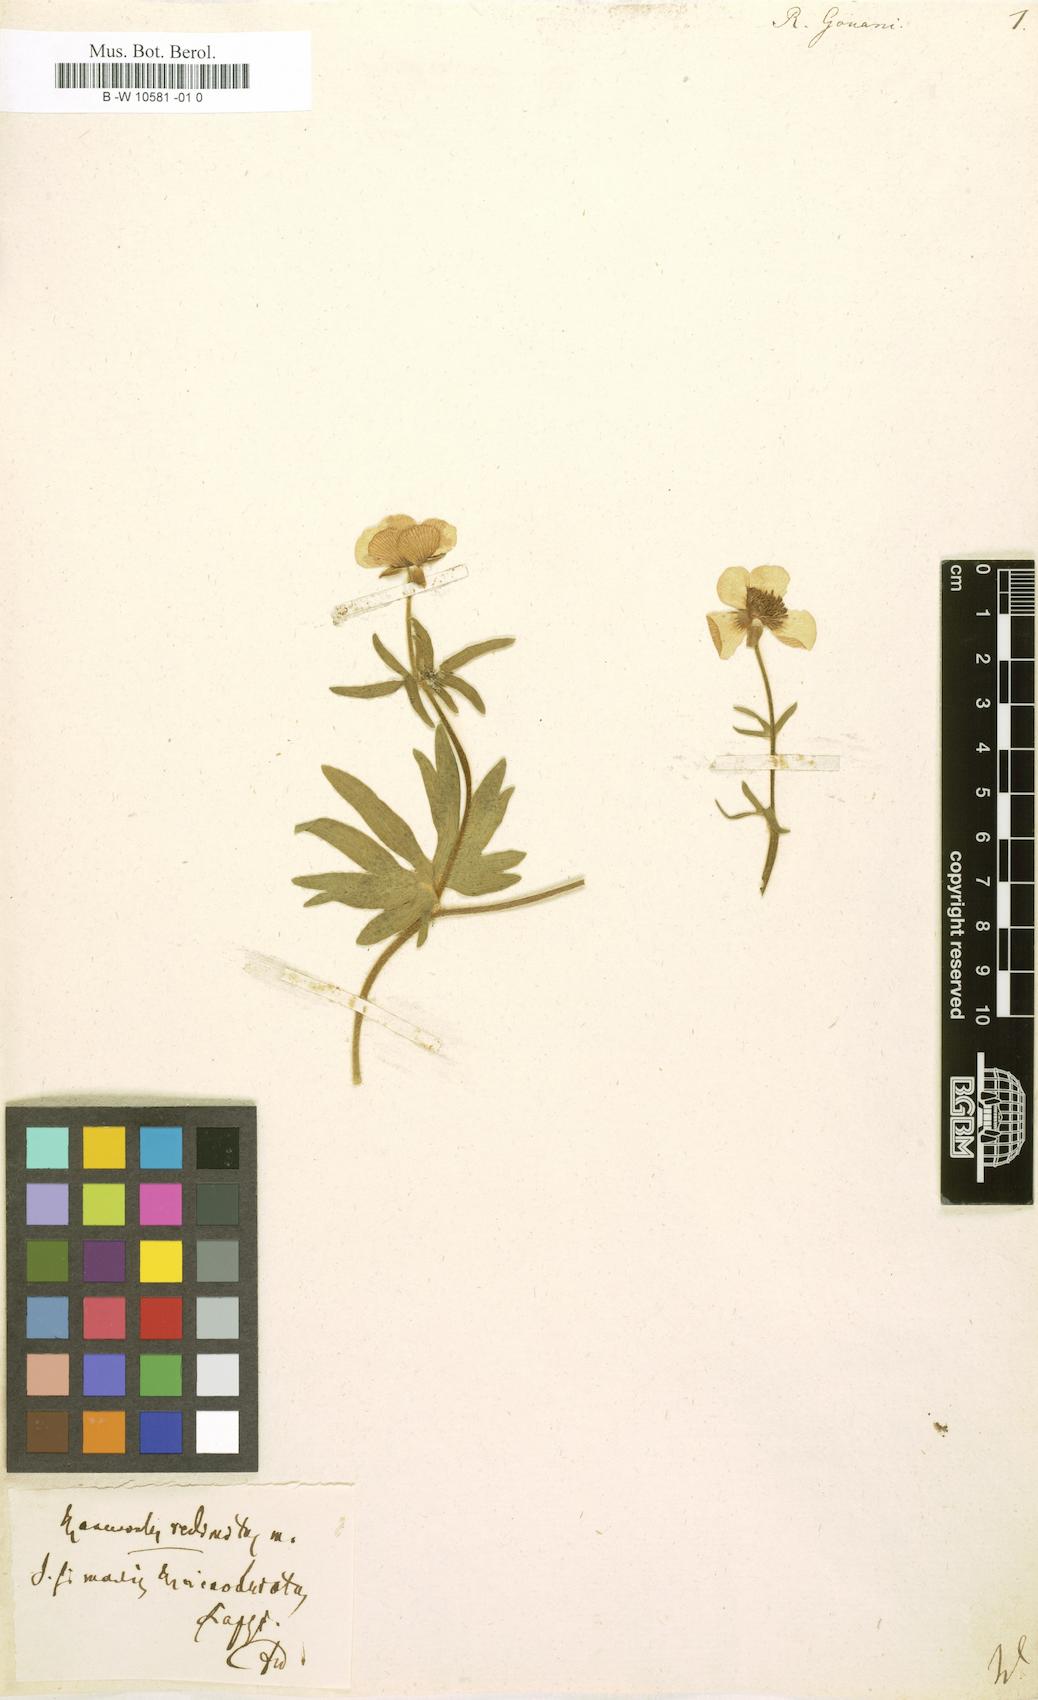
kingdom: Plantae
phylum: Tracheophyta
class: Magnoliopsida
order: Ranunculales
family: Ranunculaceae
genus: Ranunculus
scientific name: Ranunculus gouani
